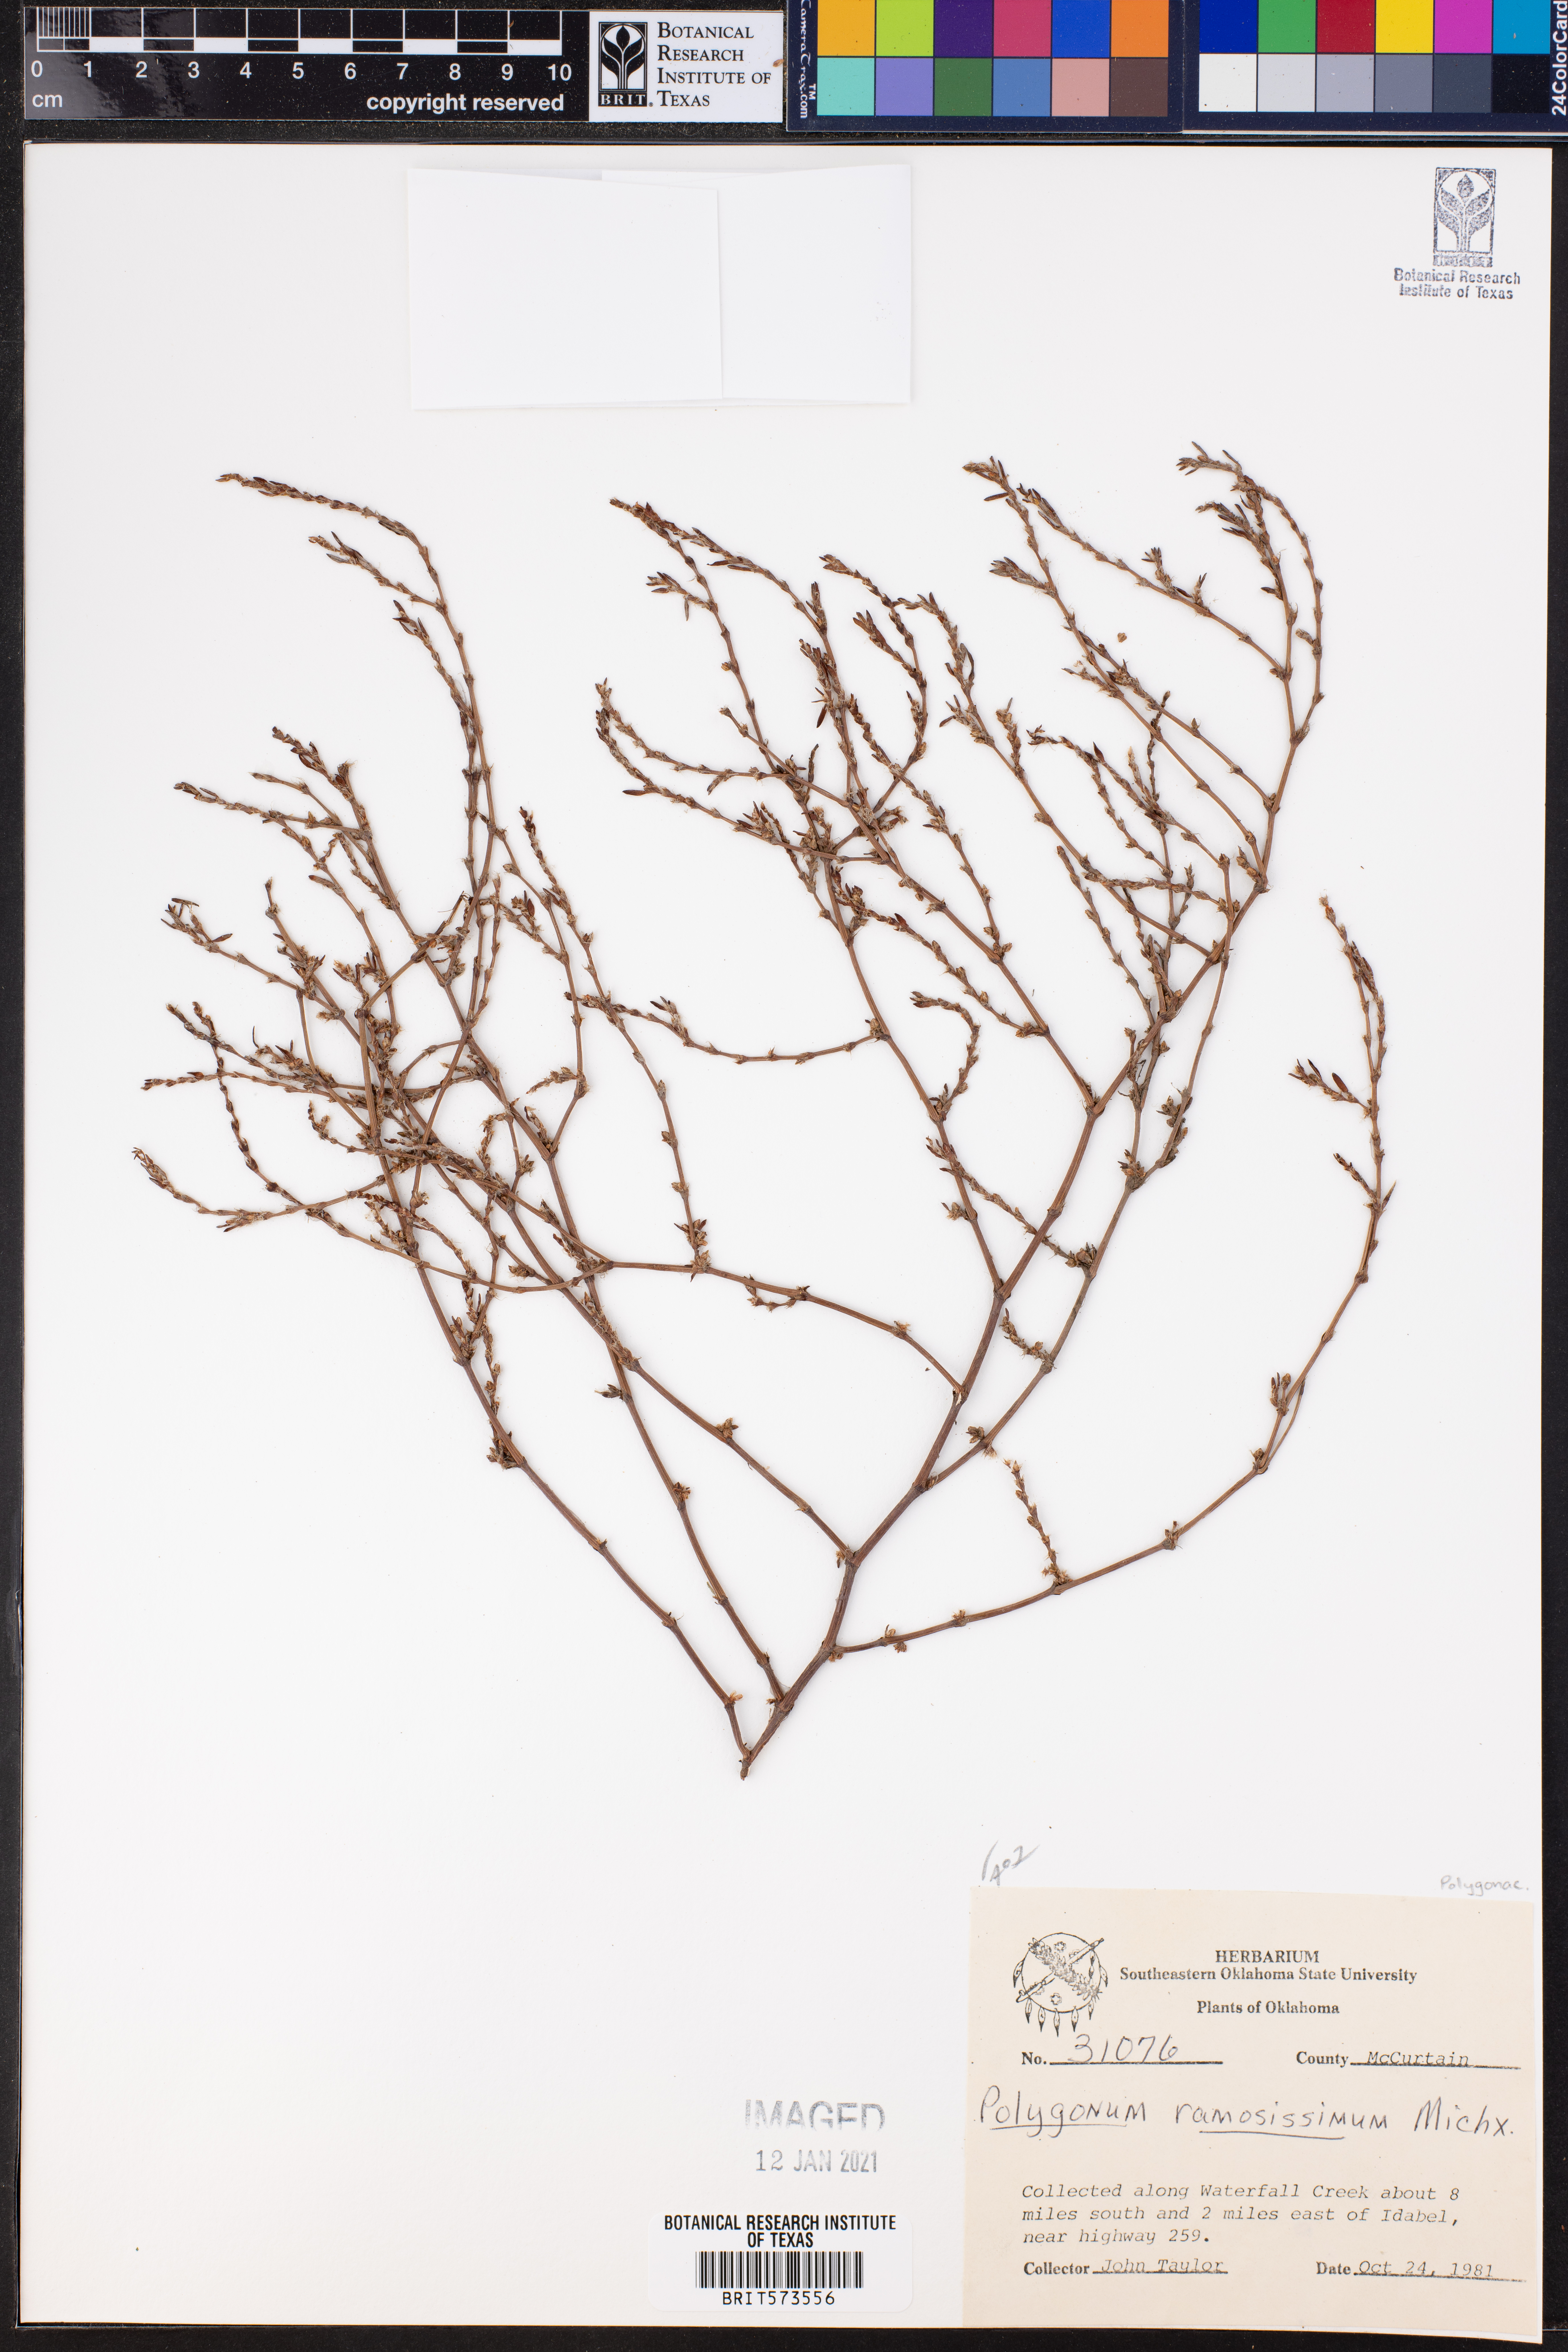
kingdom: Plantae
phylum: Tracheophyta
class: Magnoliopsida
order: Caryophyllales
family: Polygonaceae
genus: Polygonum
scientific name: Polygonum ramosissimum
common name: Bushy knotweed
